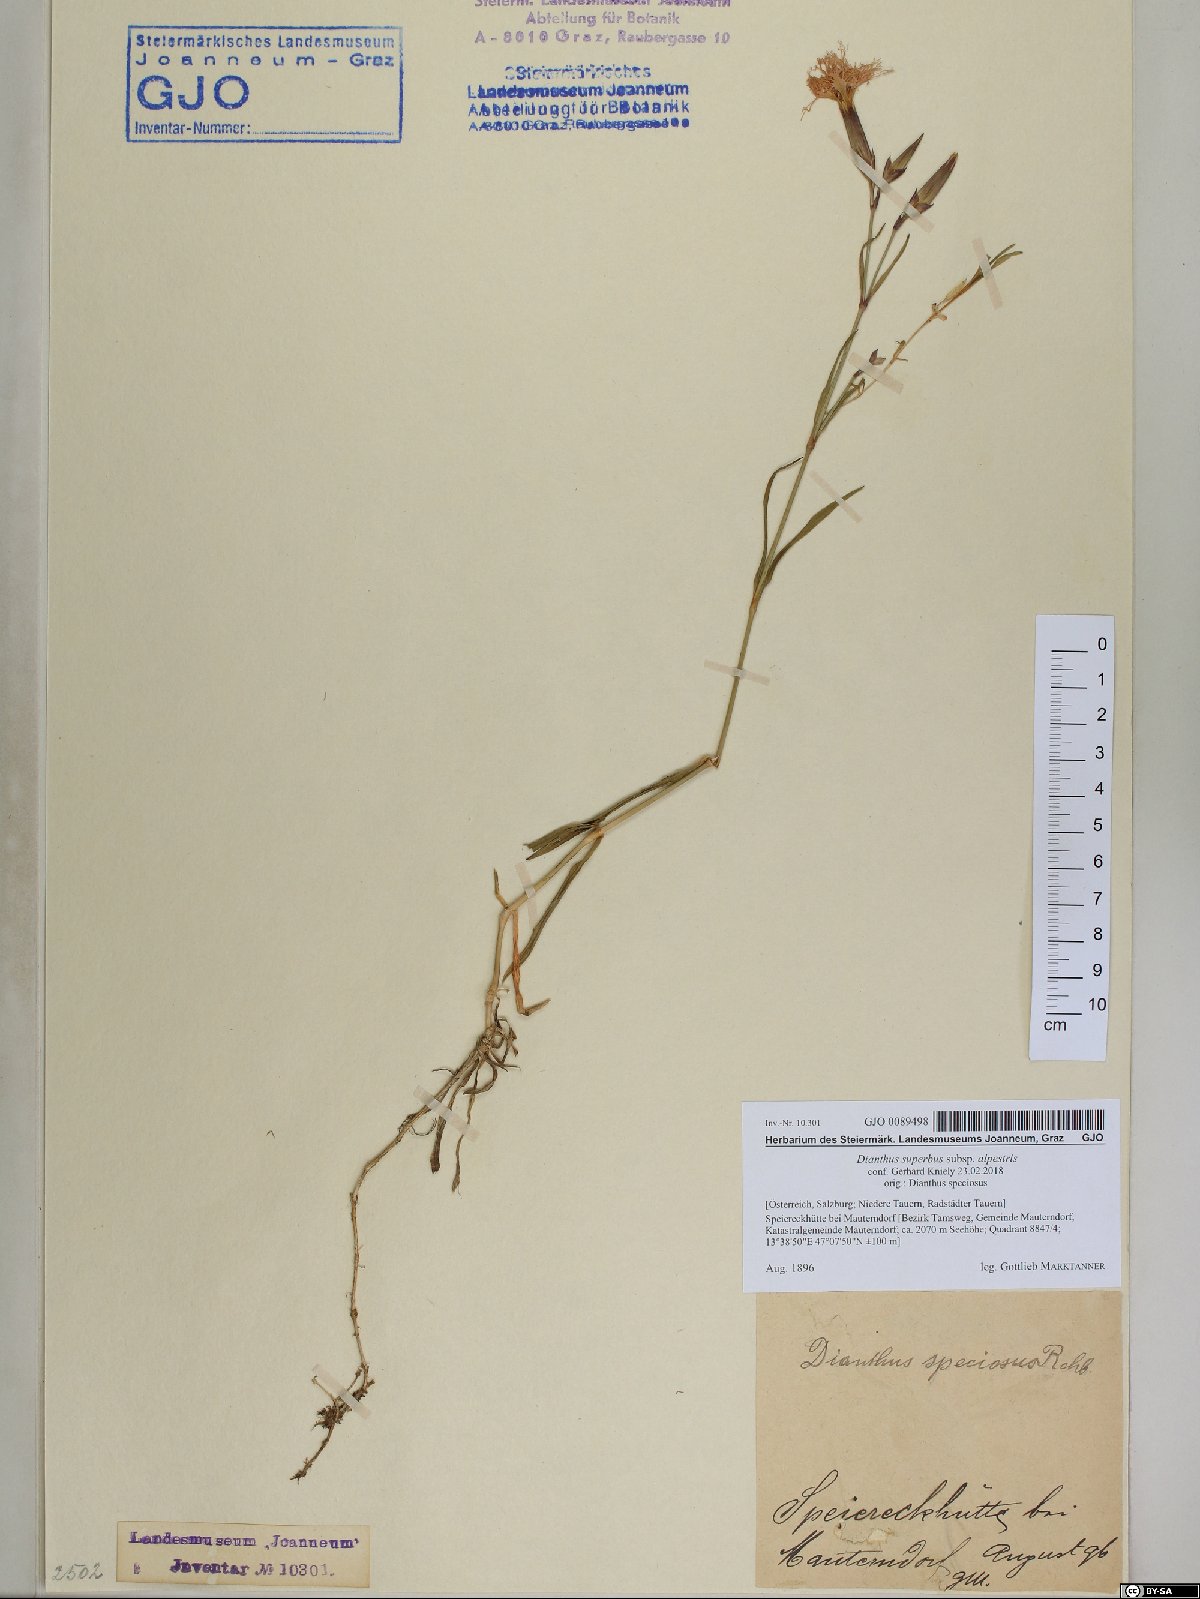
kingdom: Plantae
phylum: Tracheophyta
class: Magnoliopsida
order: Caryophyllales
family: Caryophyllaceae
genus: Dianthus
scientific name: Dianthus superbus
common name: Fringed pink
